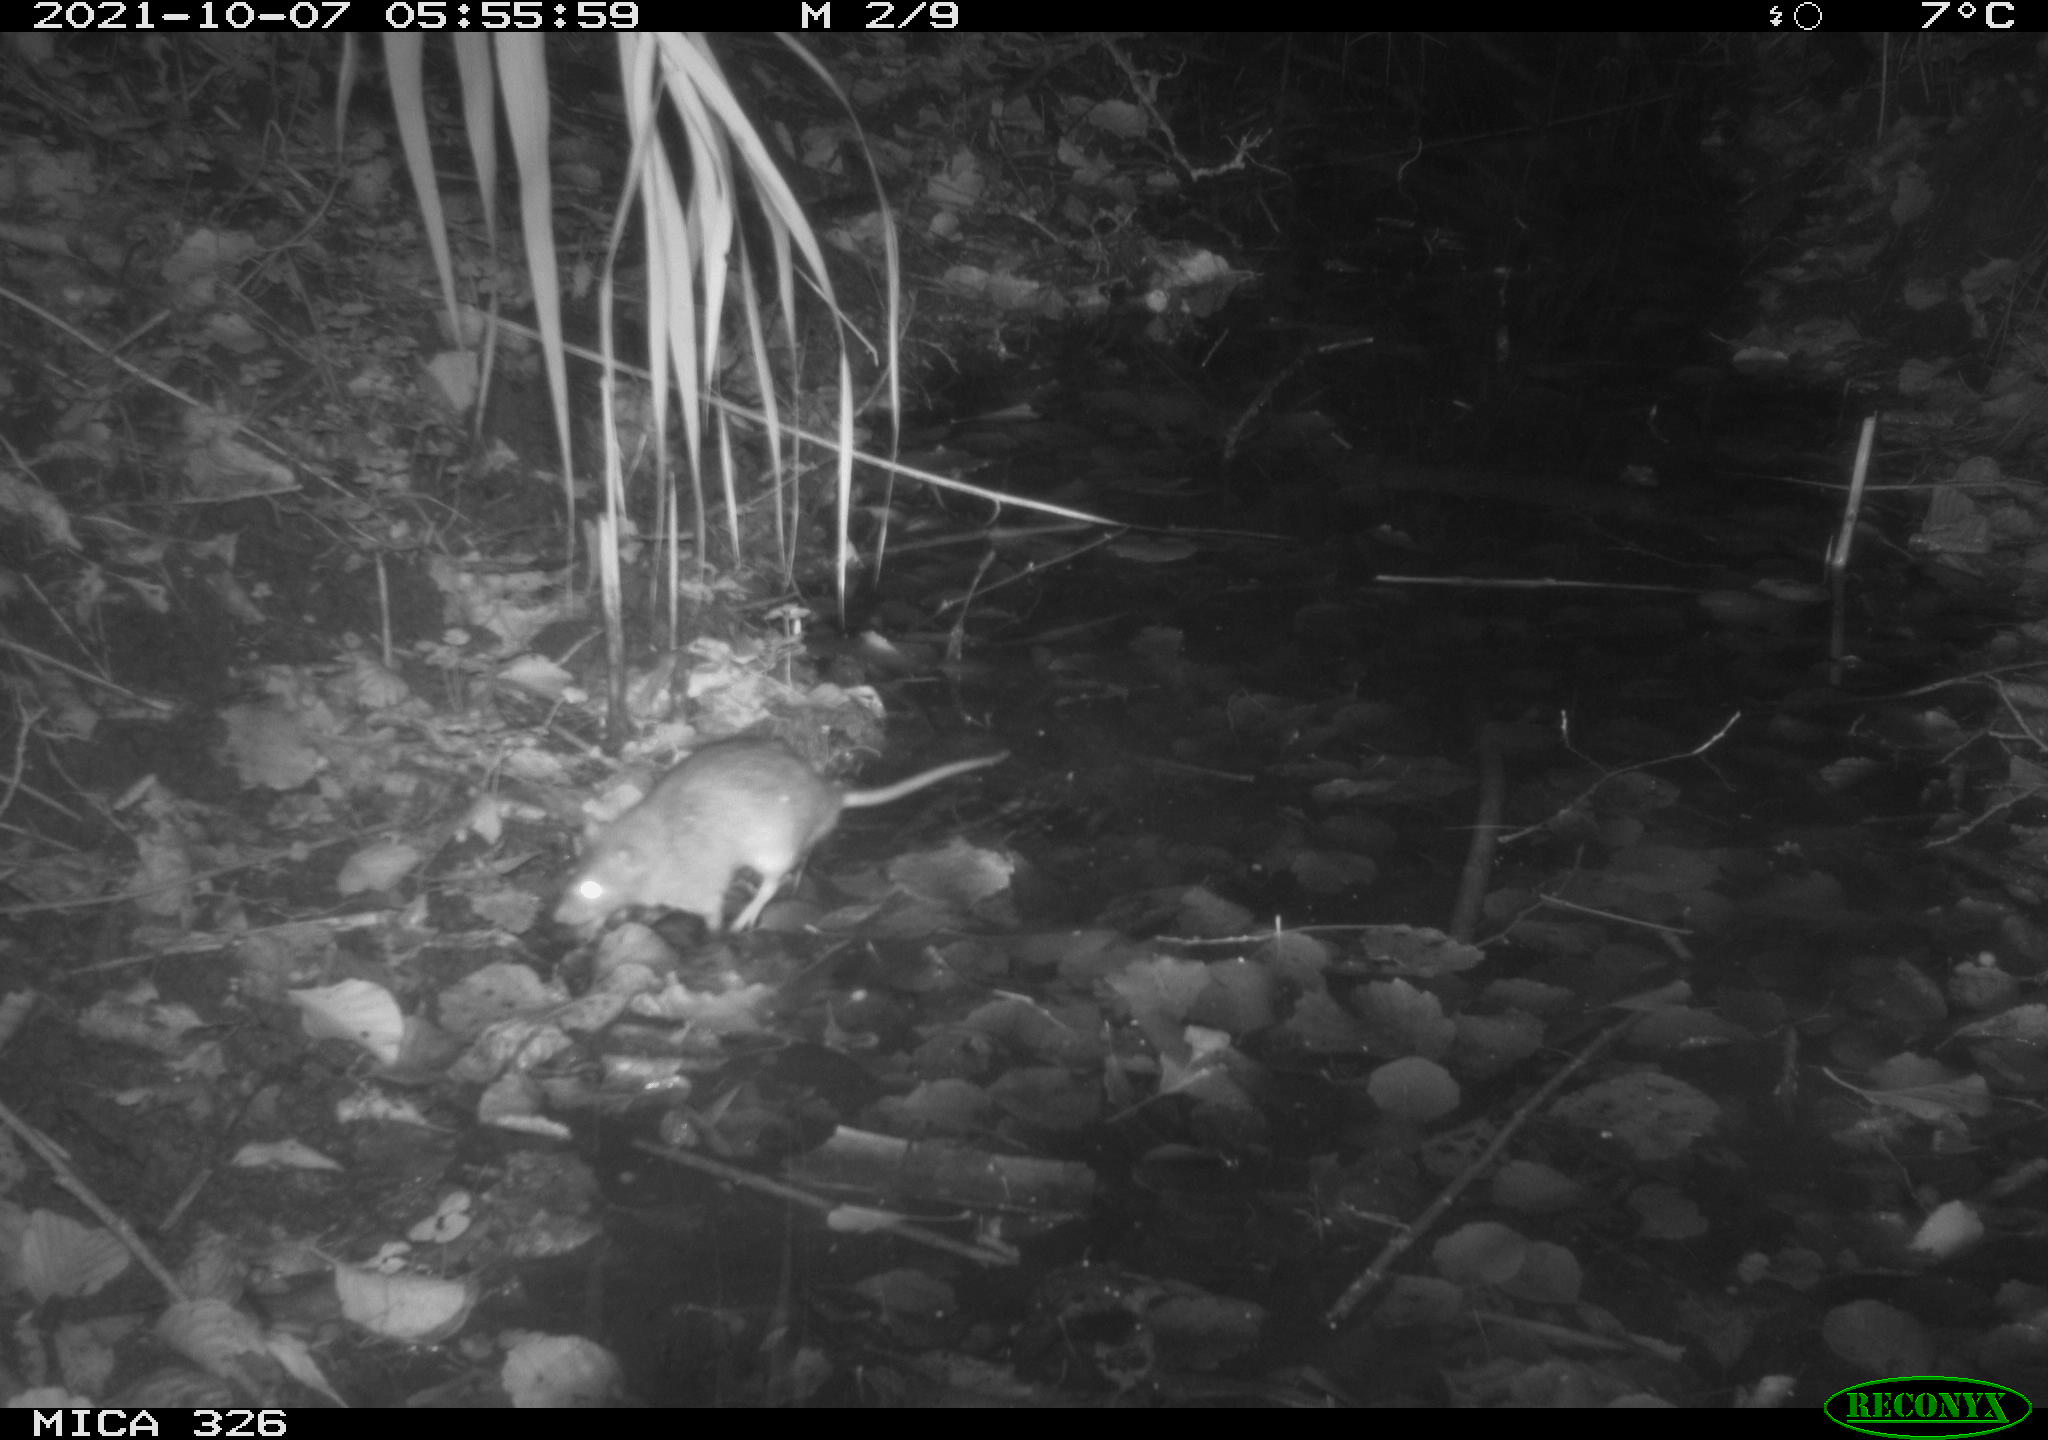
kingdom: Animalia
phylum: Chordata
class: Mammalia
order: Rodentia
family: Muridae
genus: Rattus
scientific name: Rattus norvegicus
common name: Brown rat
